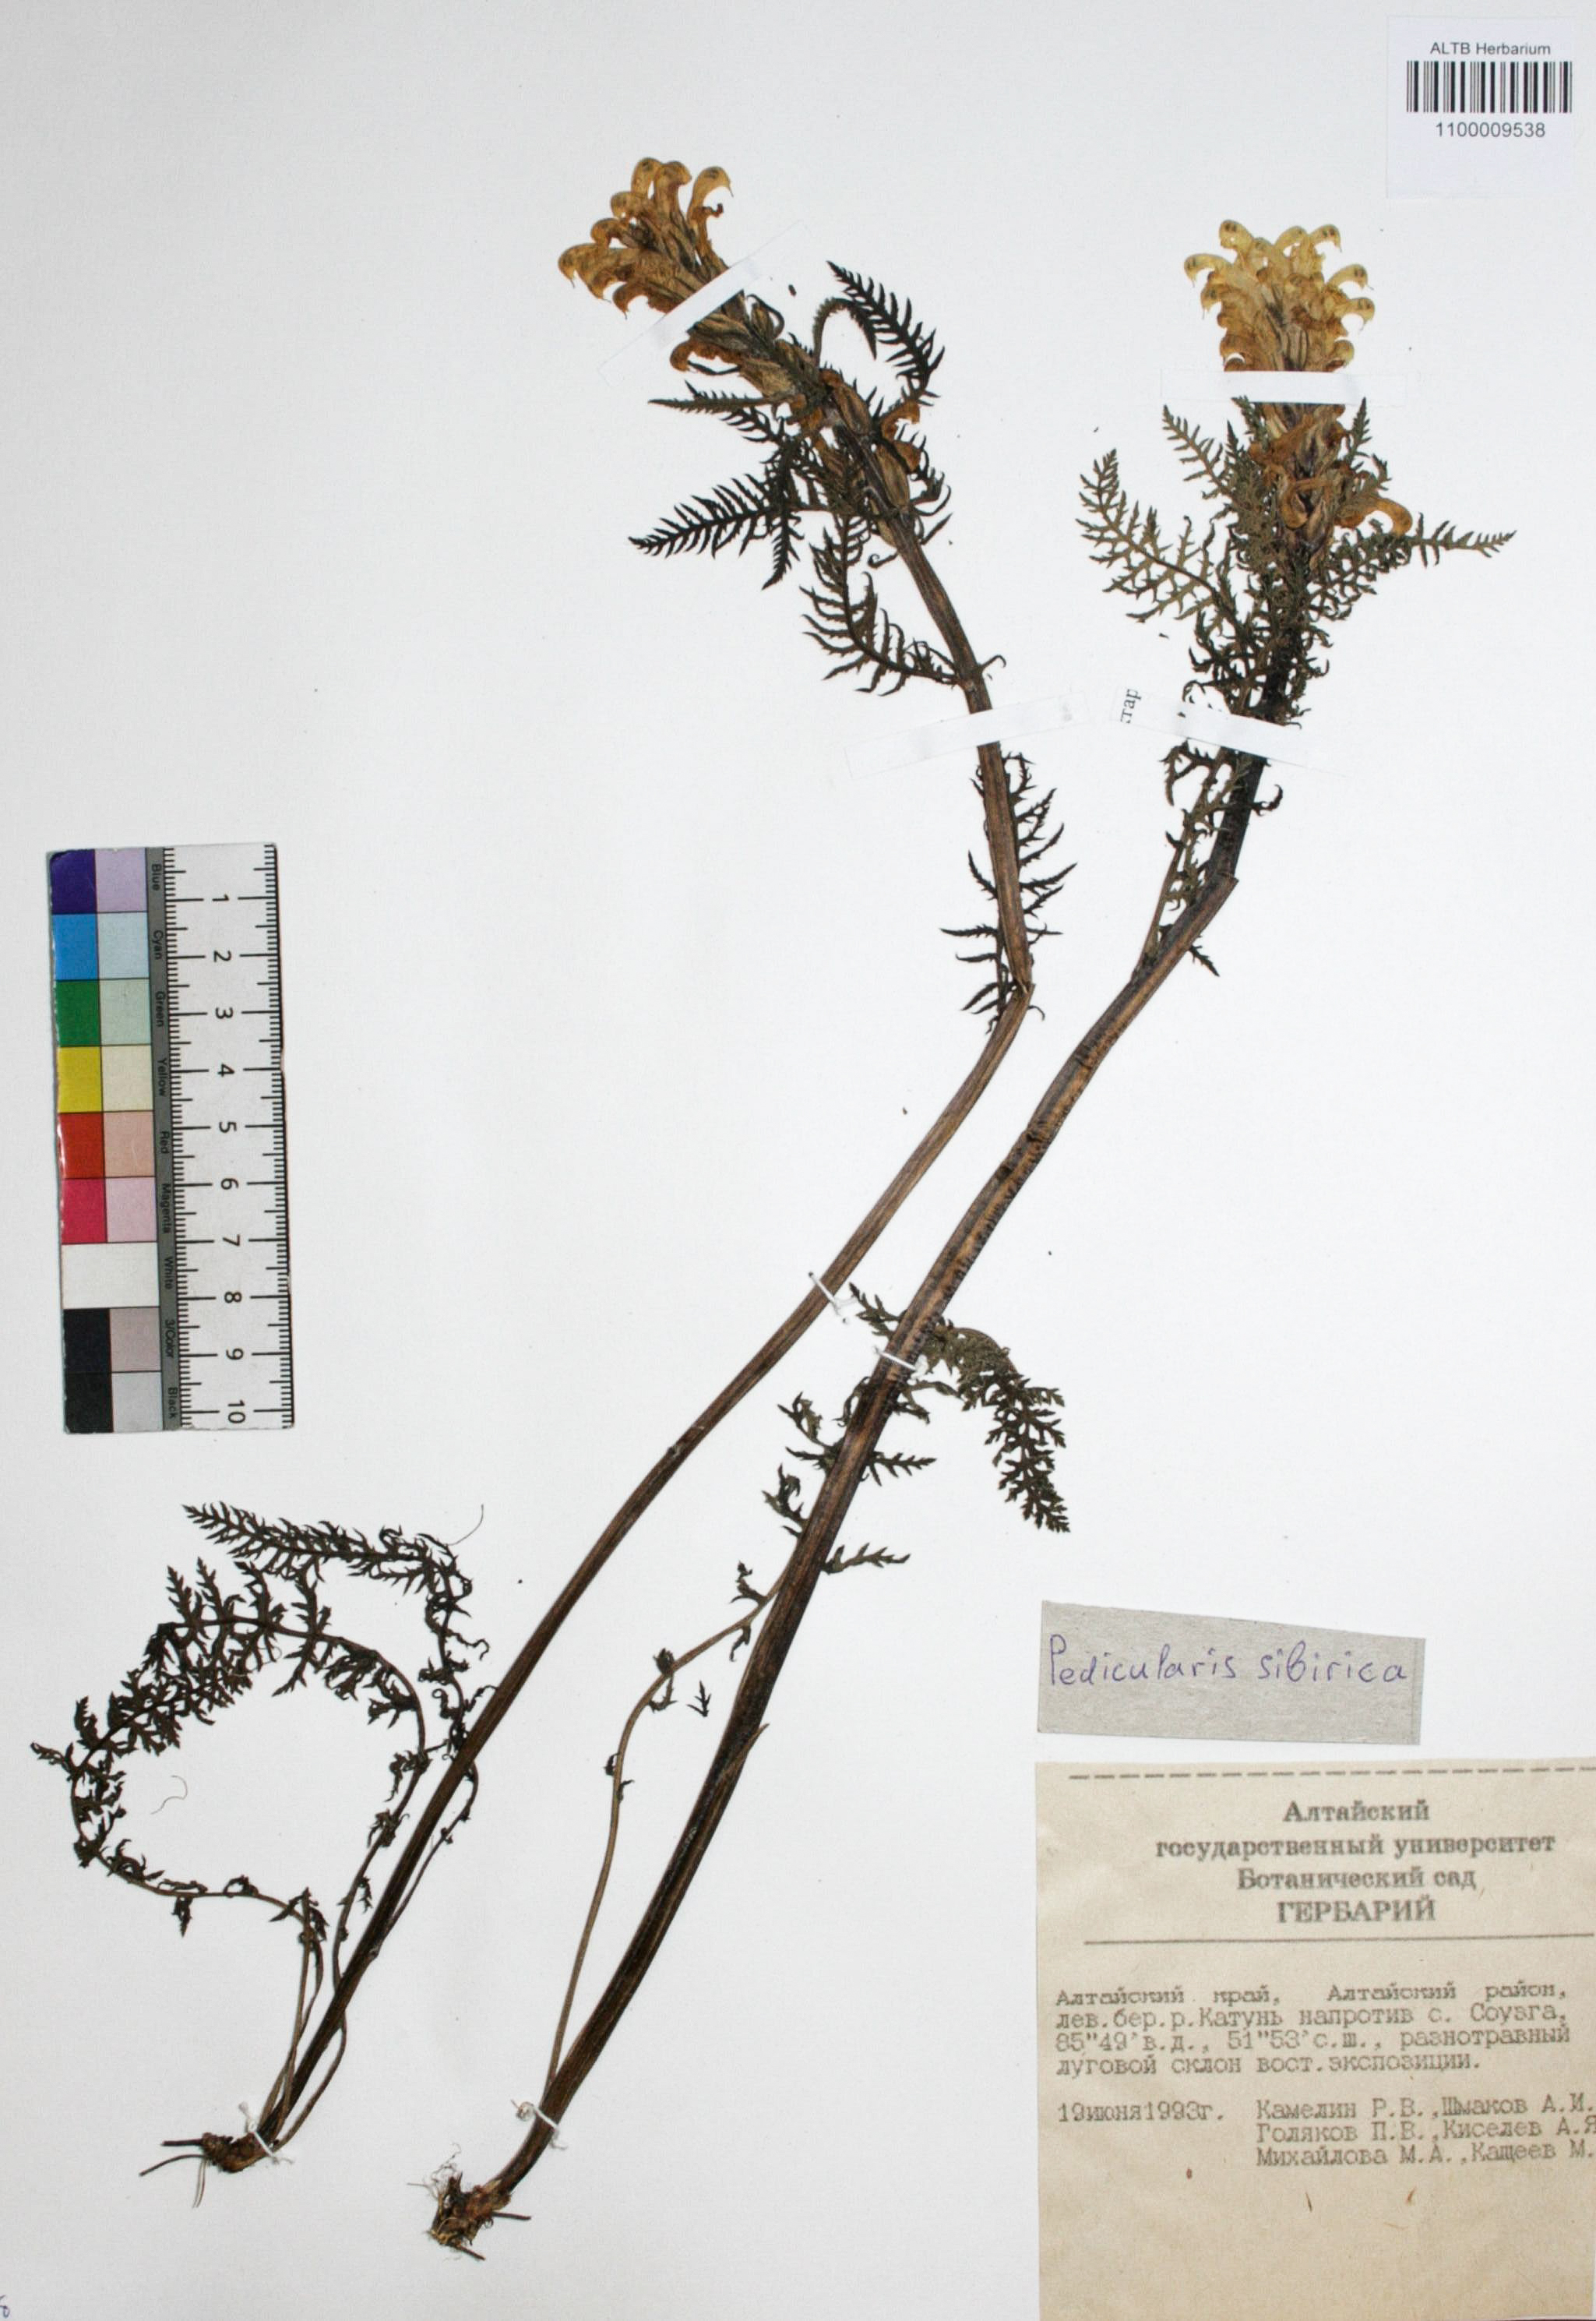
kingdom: Plantae
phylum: Tracheophyta
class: Magnoliopsida
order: Lamiales
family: Orobanchaceae
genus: Pedicularis
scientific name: Pedicularis sibirica
